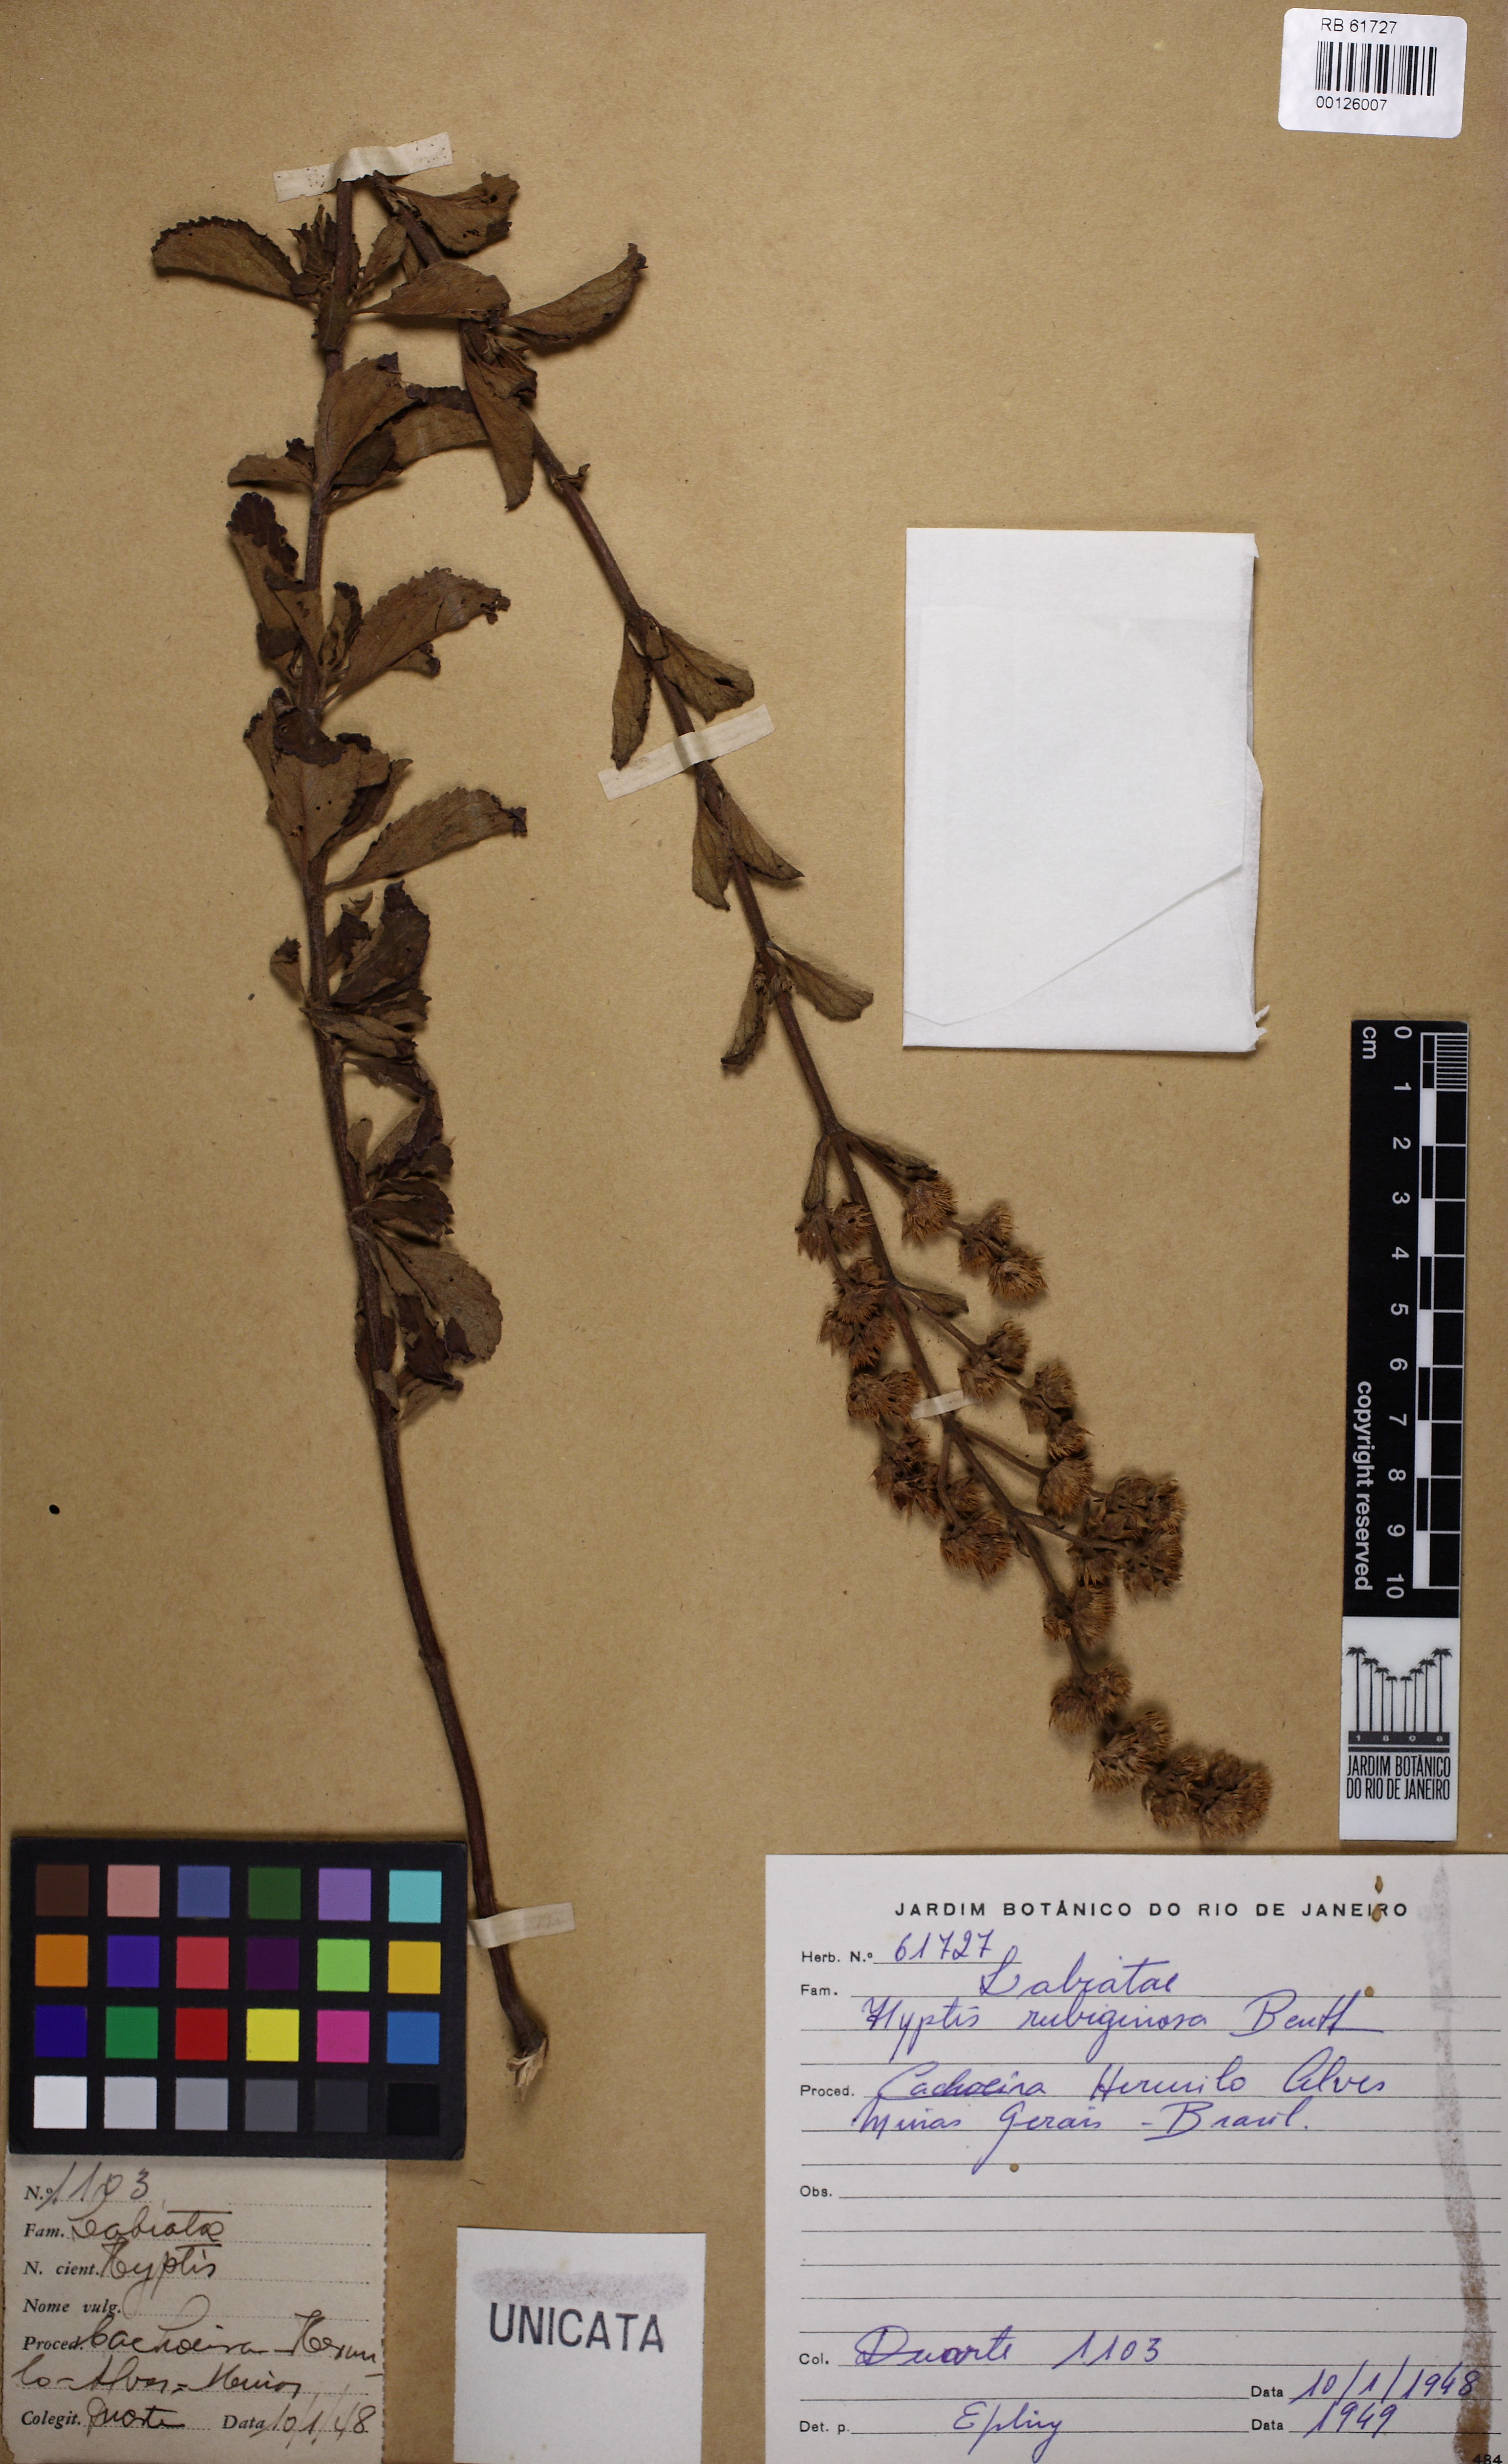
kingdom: Plantae
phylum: Tracheophyta
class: Magnoliopsida
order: Lamiales
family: Lamiaceae
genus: Hyptis
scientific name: Hyptis rubiginosa
